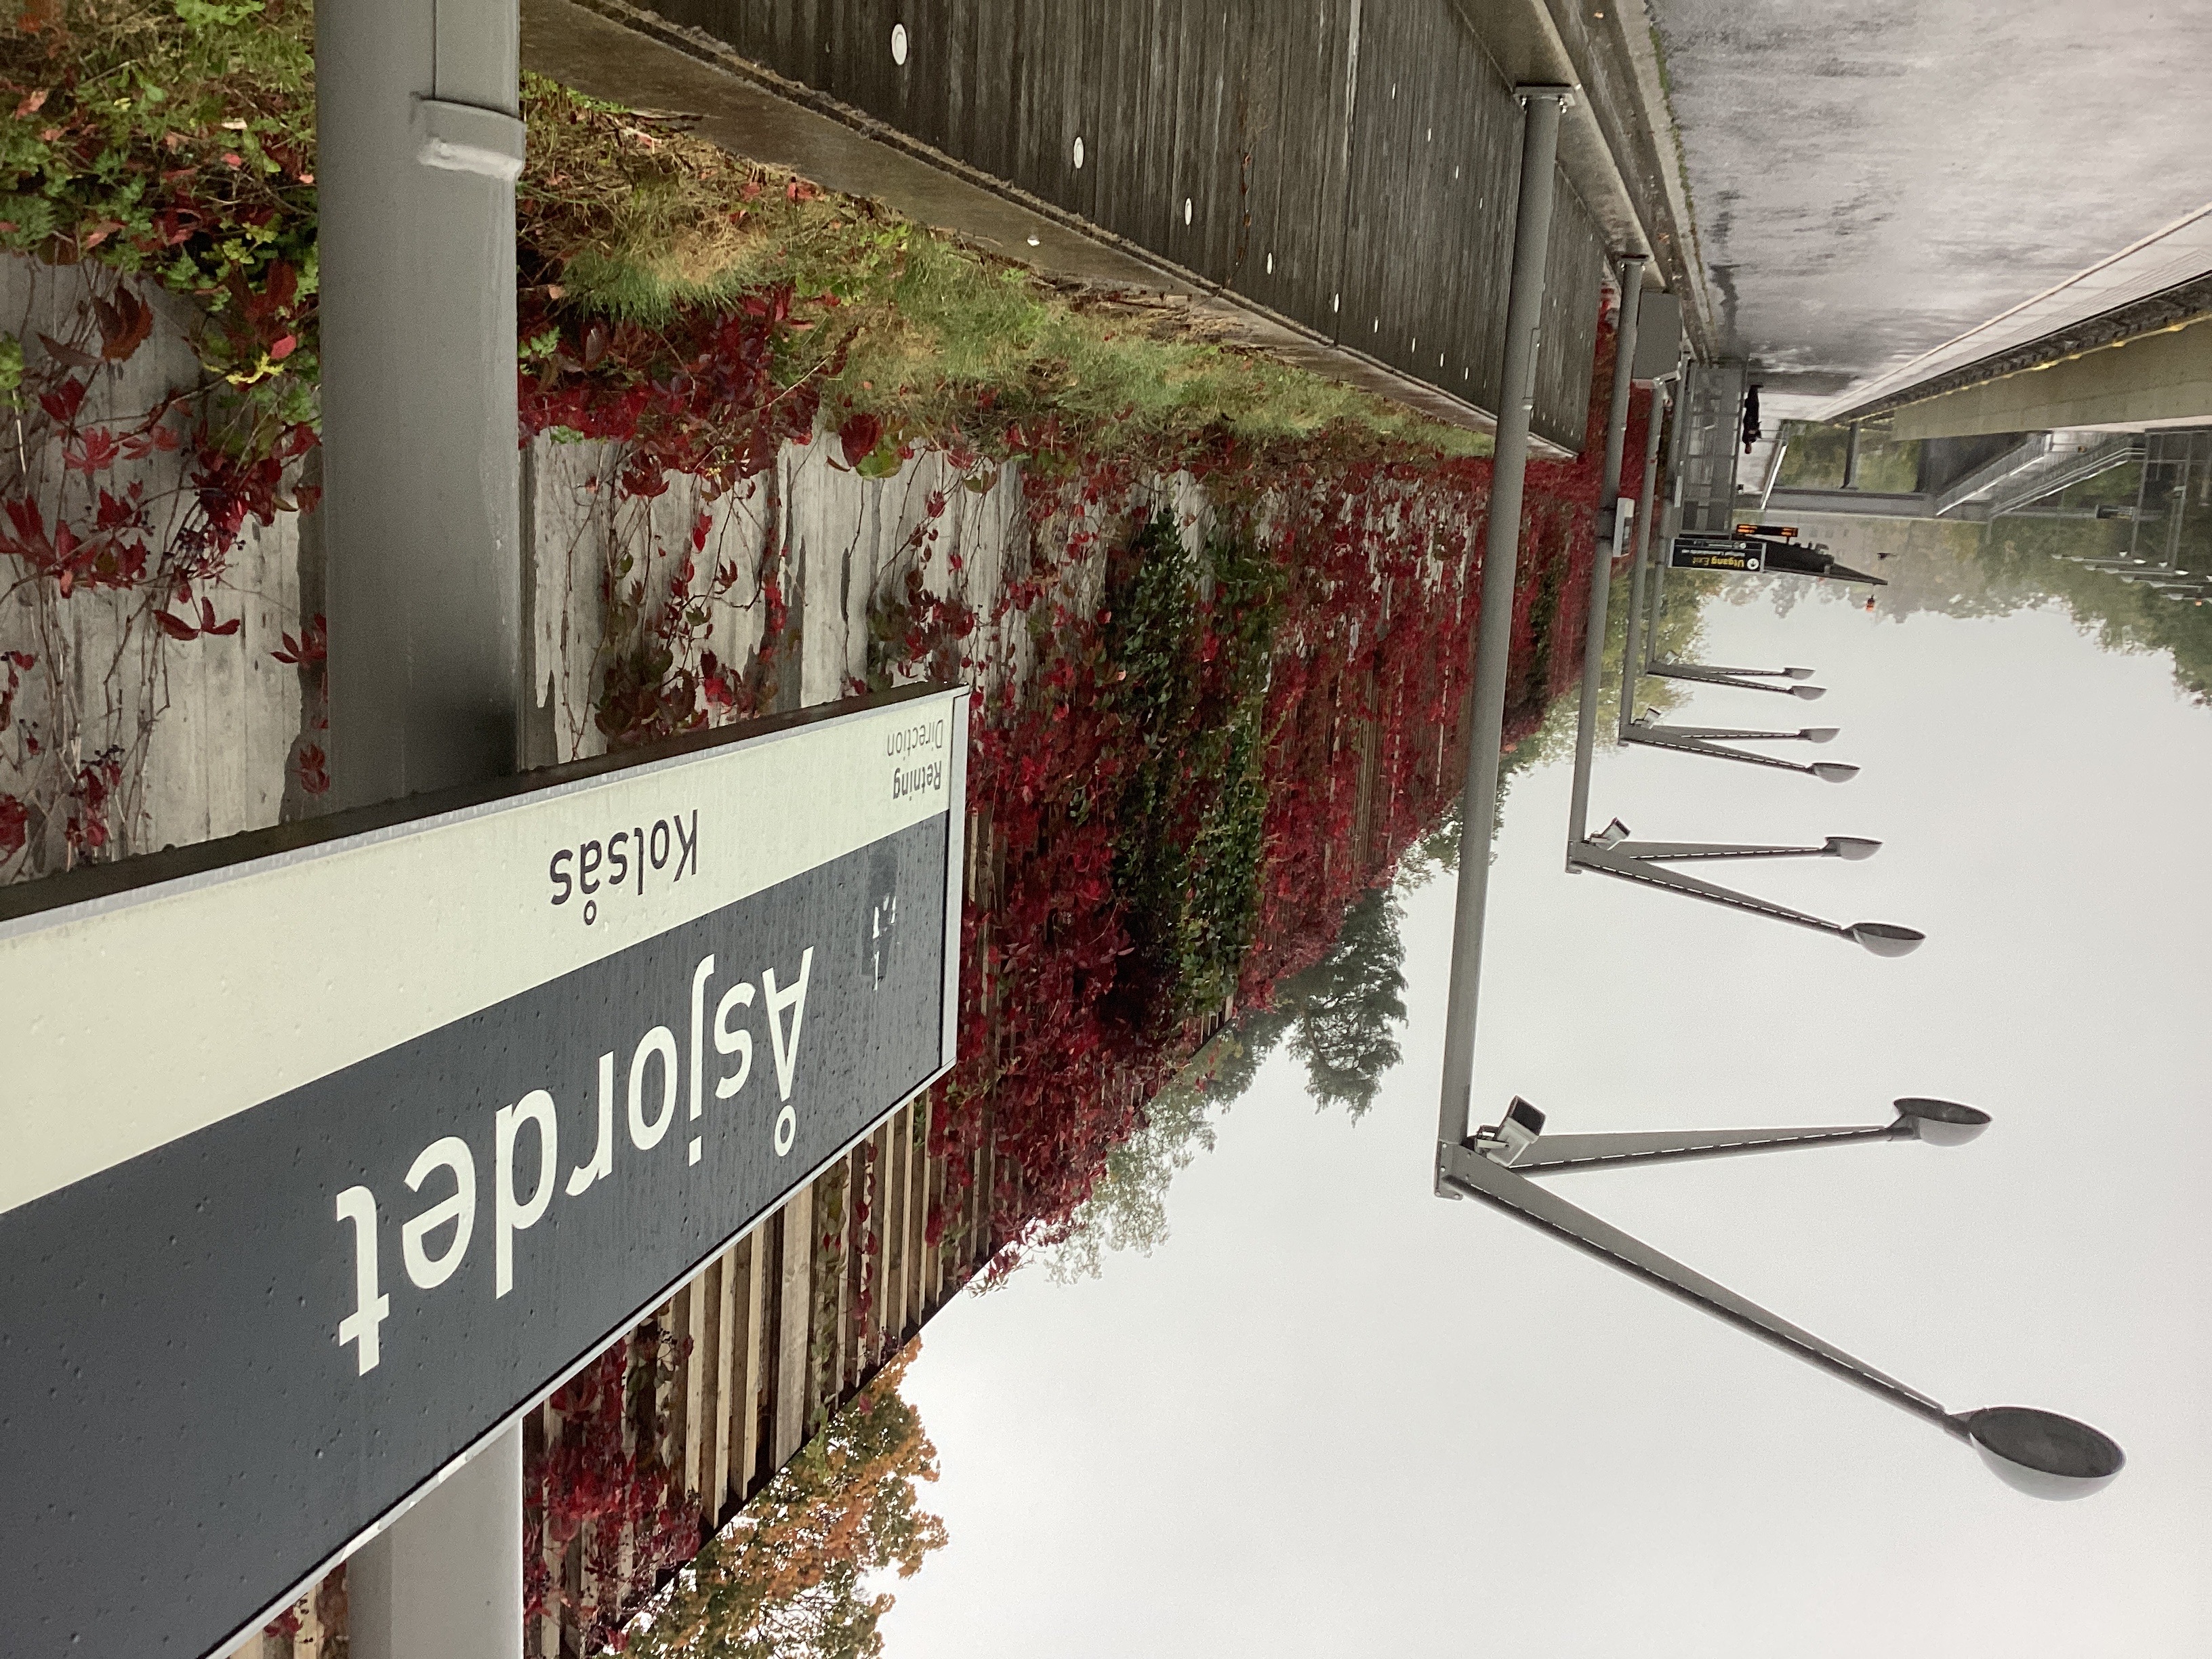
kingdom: Plantae
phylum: Tracheophyta
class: Magnoliopsida
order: Vitales
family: Vitaceae
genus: Parthenocissus
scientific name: Parthenocissus quinquefolia
